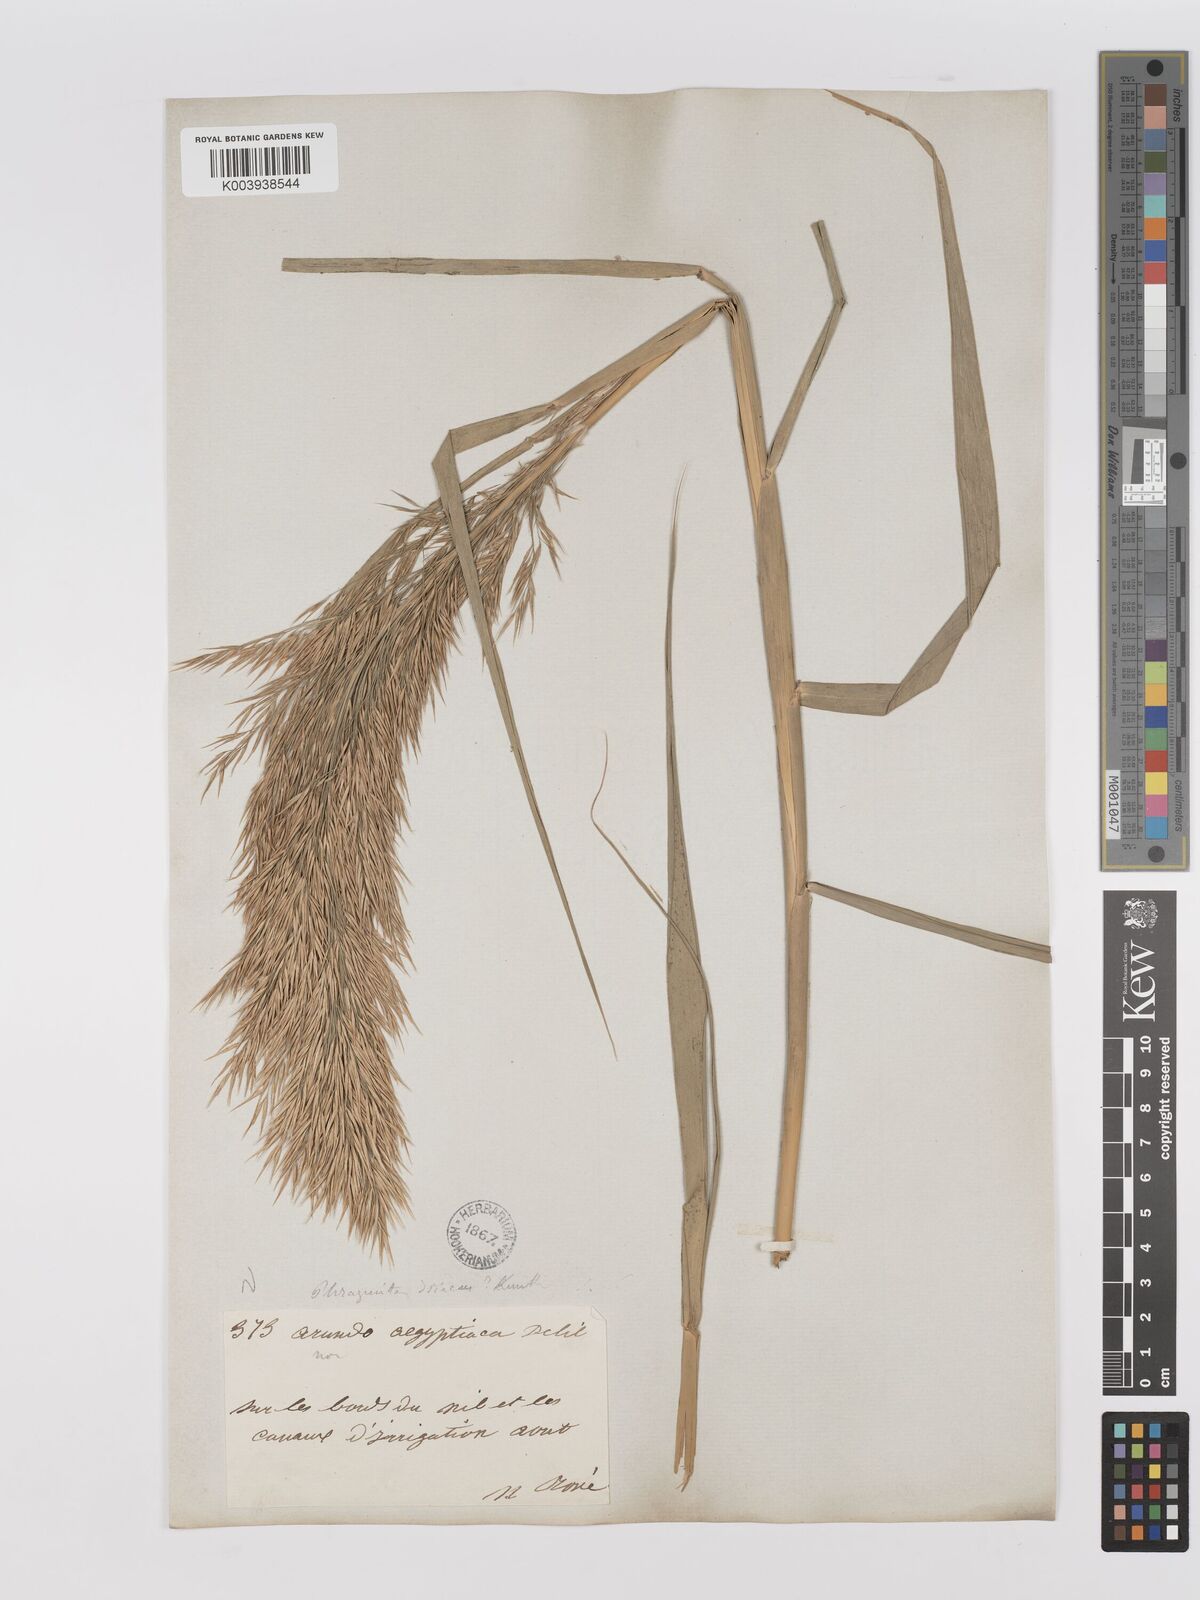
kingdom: Plantae
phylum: Tracheophyta
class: Liliopsida
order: Poales
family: Poaceae
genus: Phragmites
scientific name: Phragmites australis
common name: Common reed
